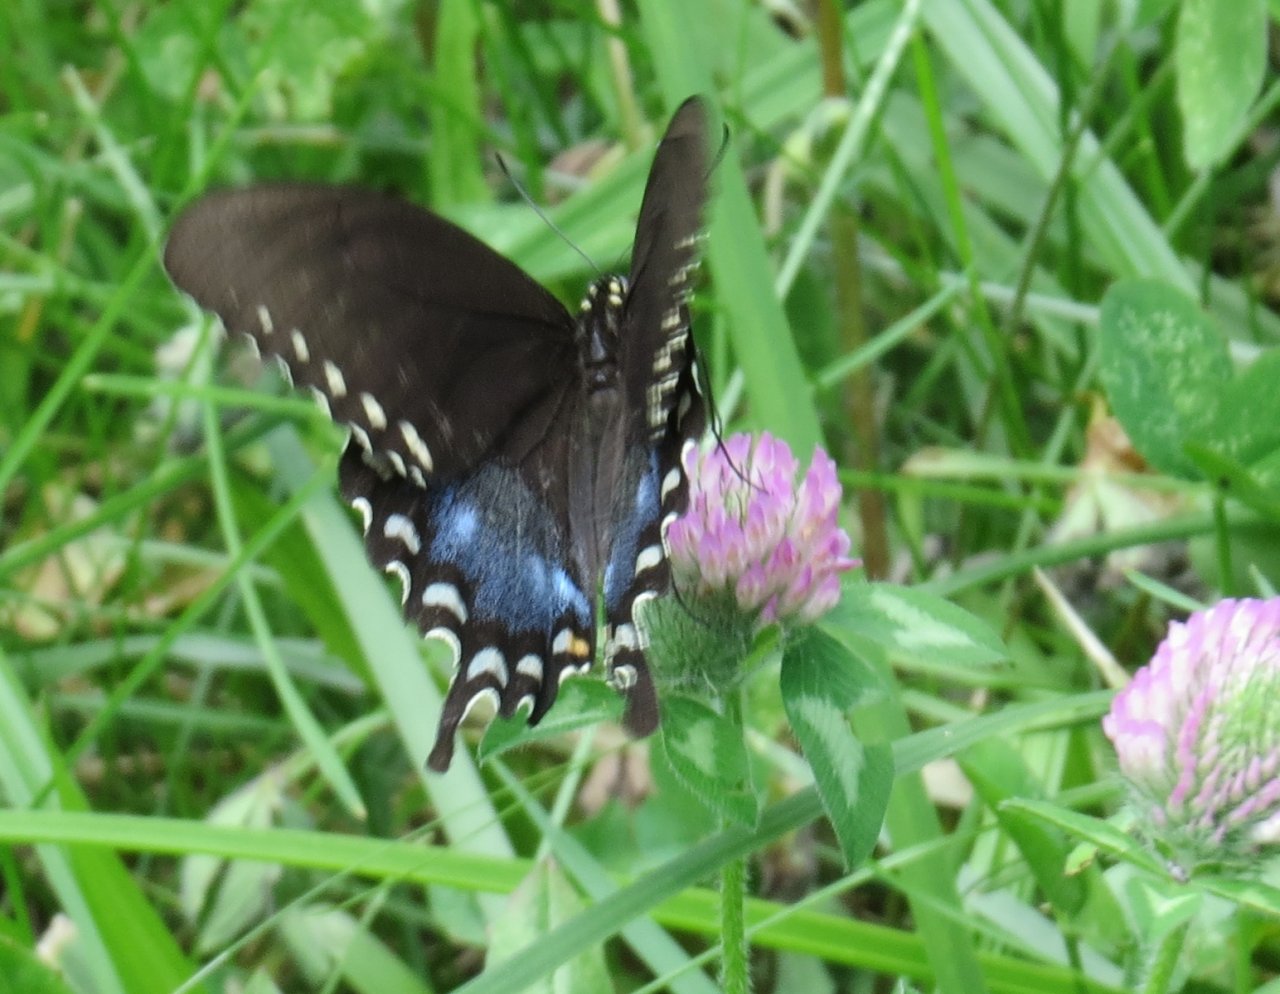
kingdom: Animalia
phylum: Arthropoda
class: Insecta
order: Lepidoptera
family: Papilionidae
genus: Pterourus
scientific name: Pterourus troilus
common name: Spicebush Swallowtail
